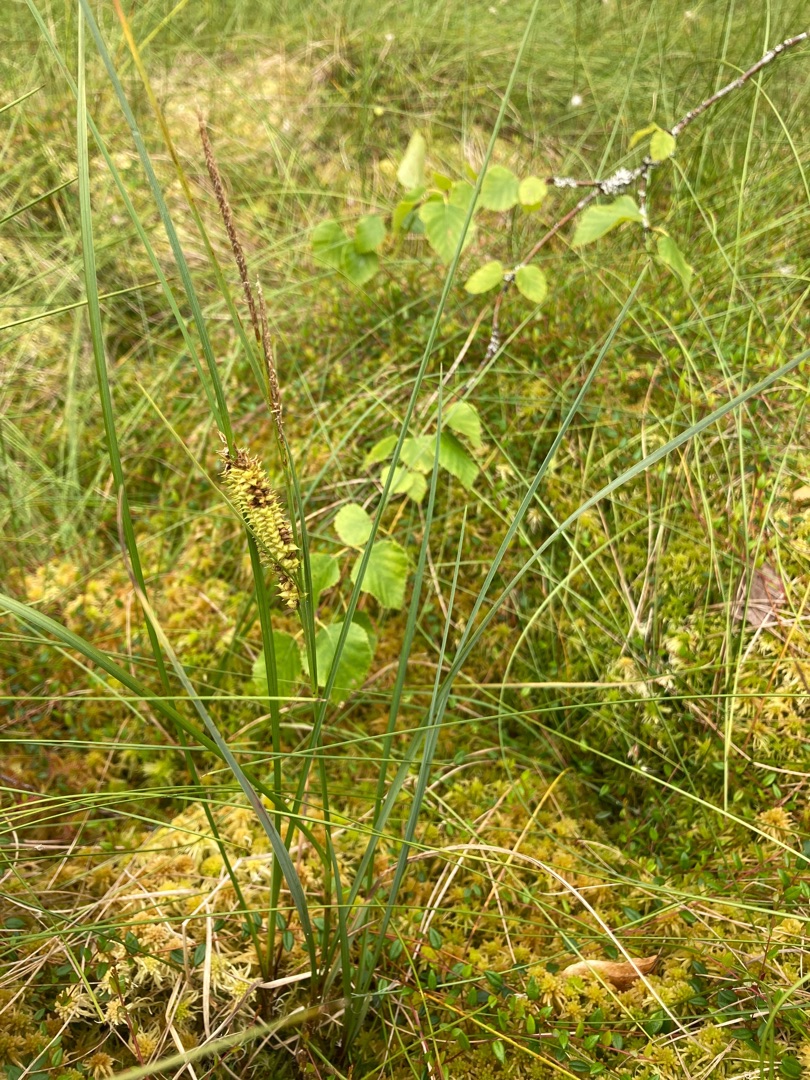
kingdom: Plantae
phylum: Tracheophyta
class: Liliopsida
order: Poales
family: Cyperaceae
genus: Carex
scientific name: Carex rostrata
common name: Næb-star
